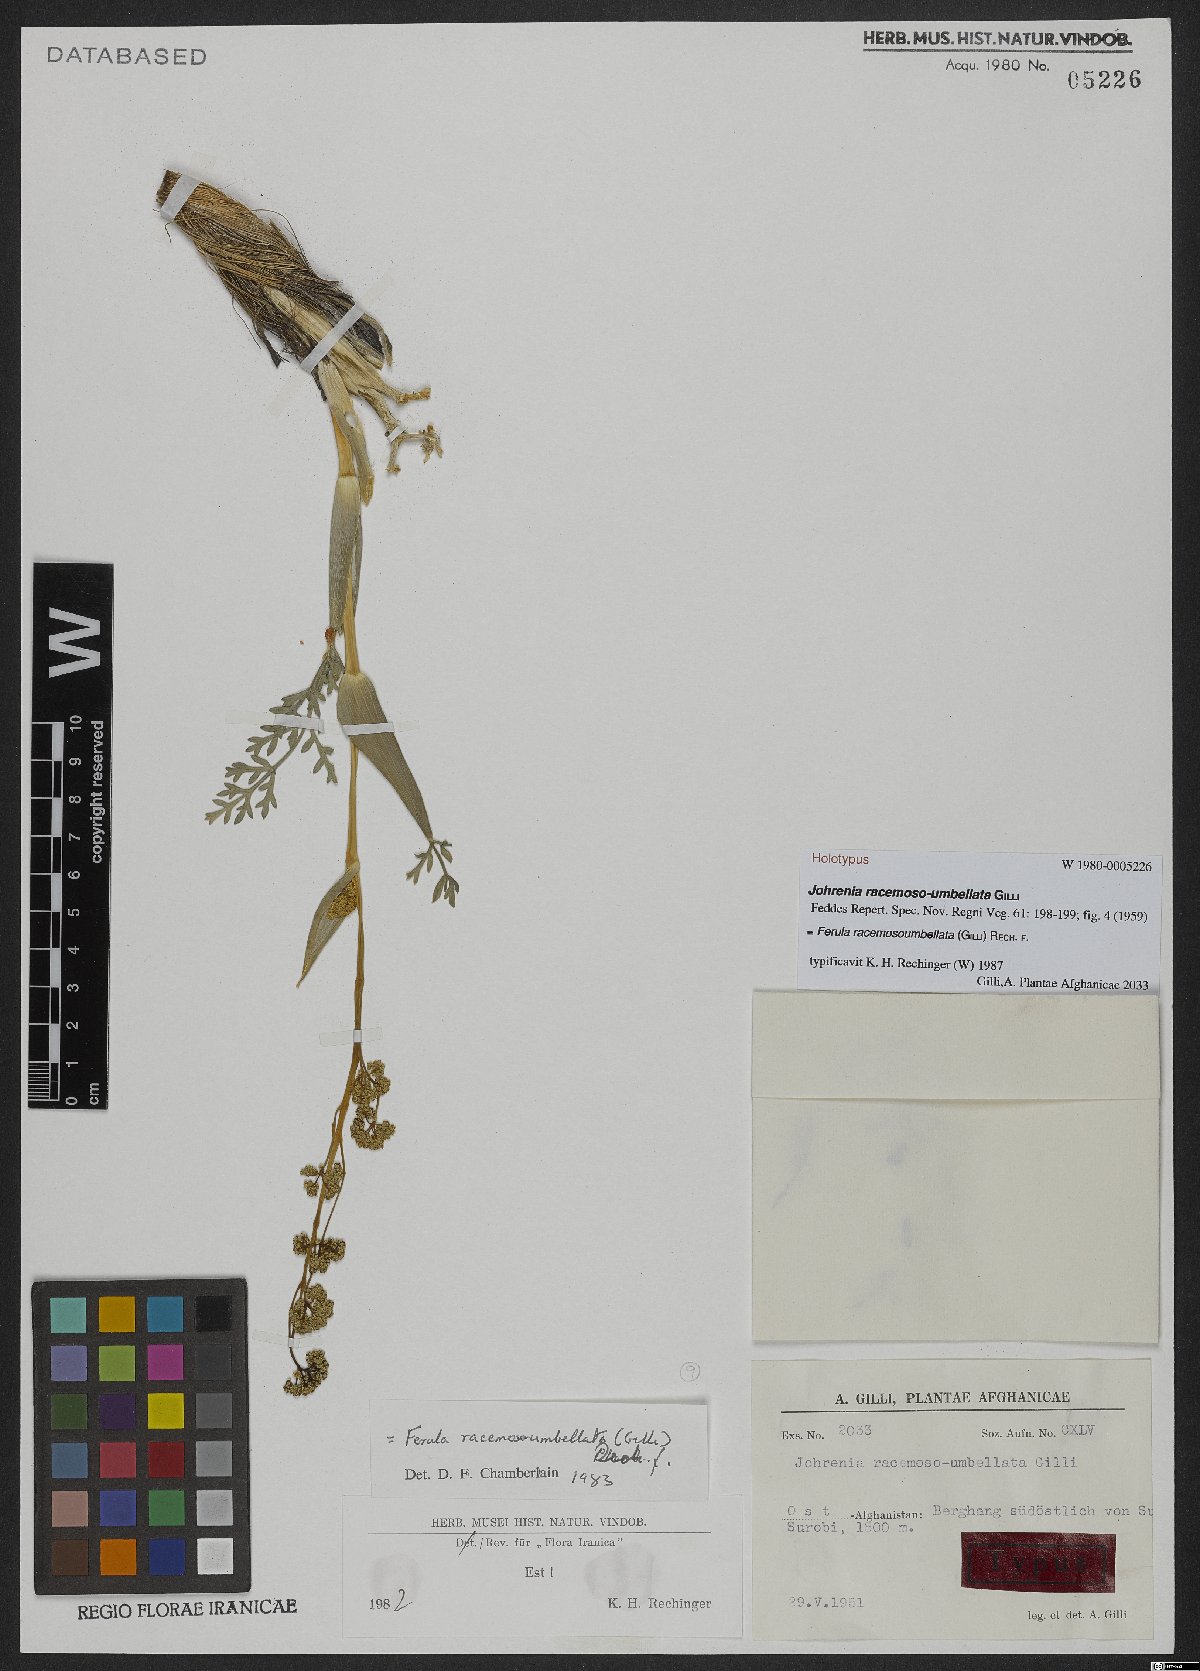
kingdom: Plantae
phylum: Tracheophyta
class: Magnoliopsida
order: Apiales
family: Apiaceae
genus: Ferula
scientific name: Ferula racemosoumbellata
